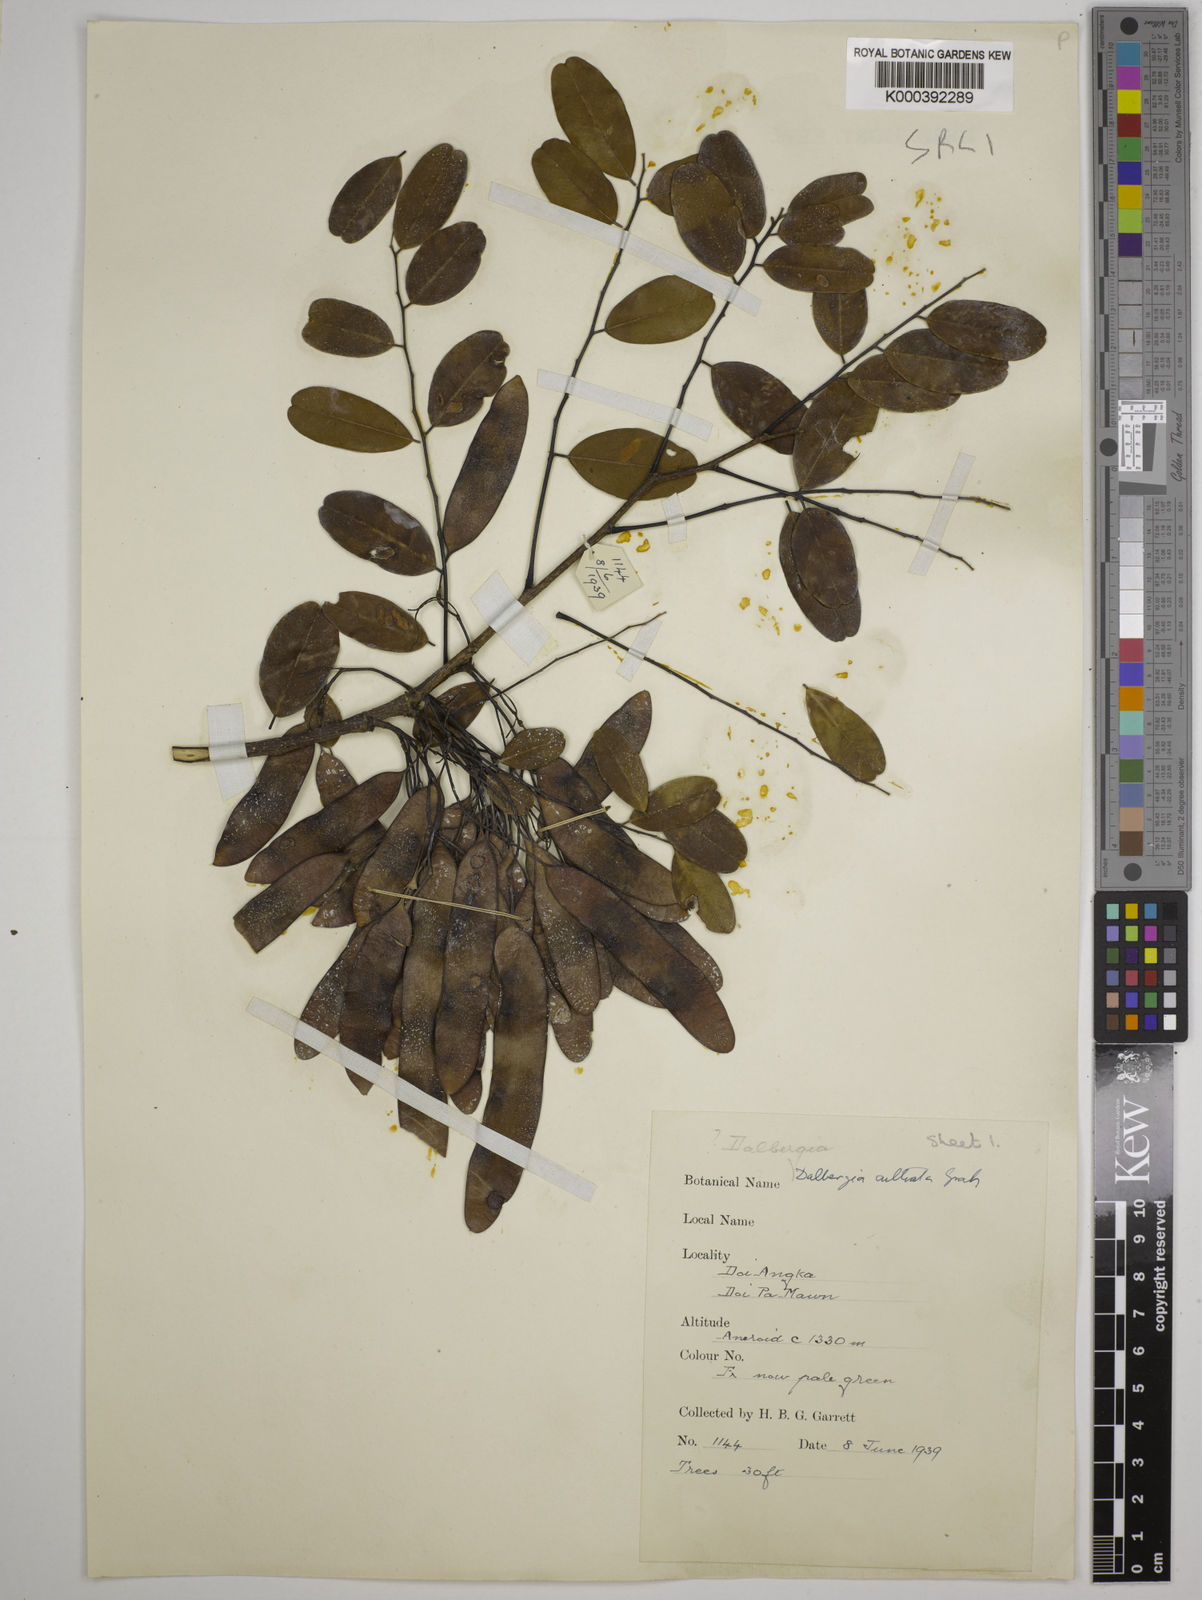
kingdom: Plantae
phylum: Tracheophyta
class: Magnoliopsida
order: Fabales
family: Fabaceae
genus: Dalbergia
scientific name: Dalbergia
